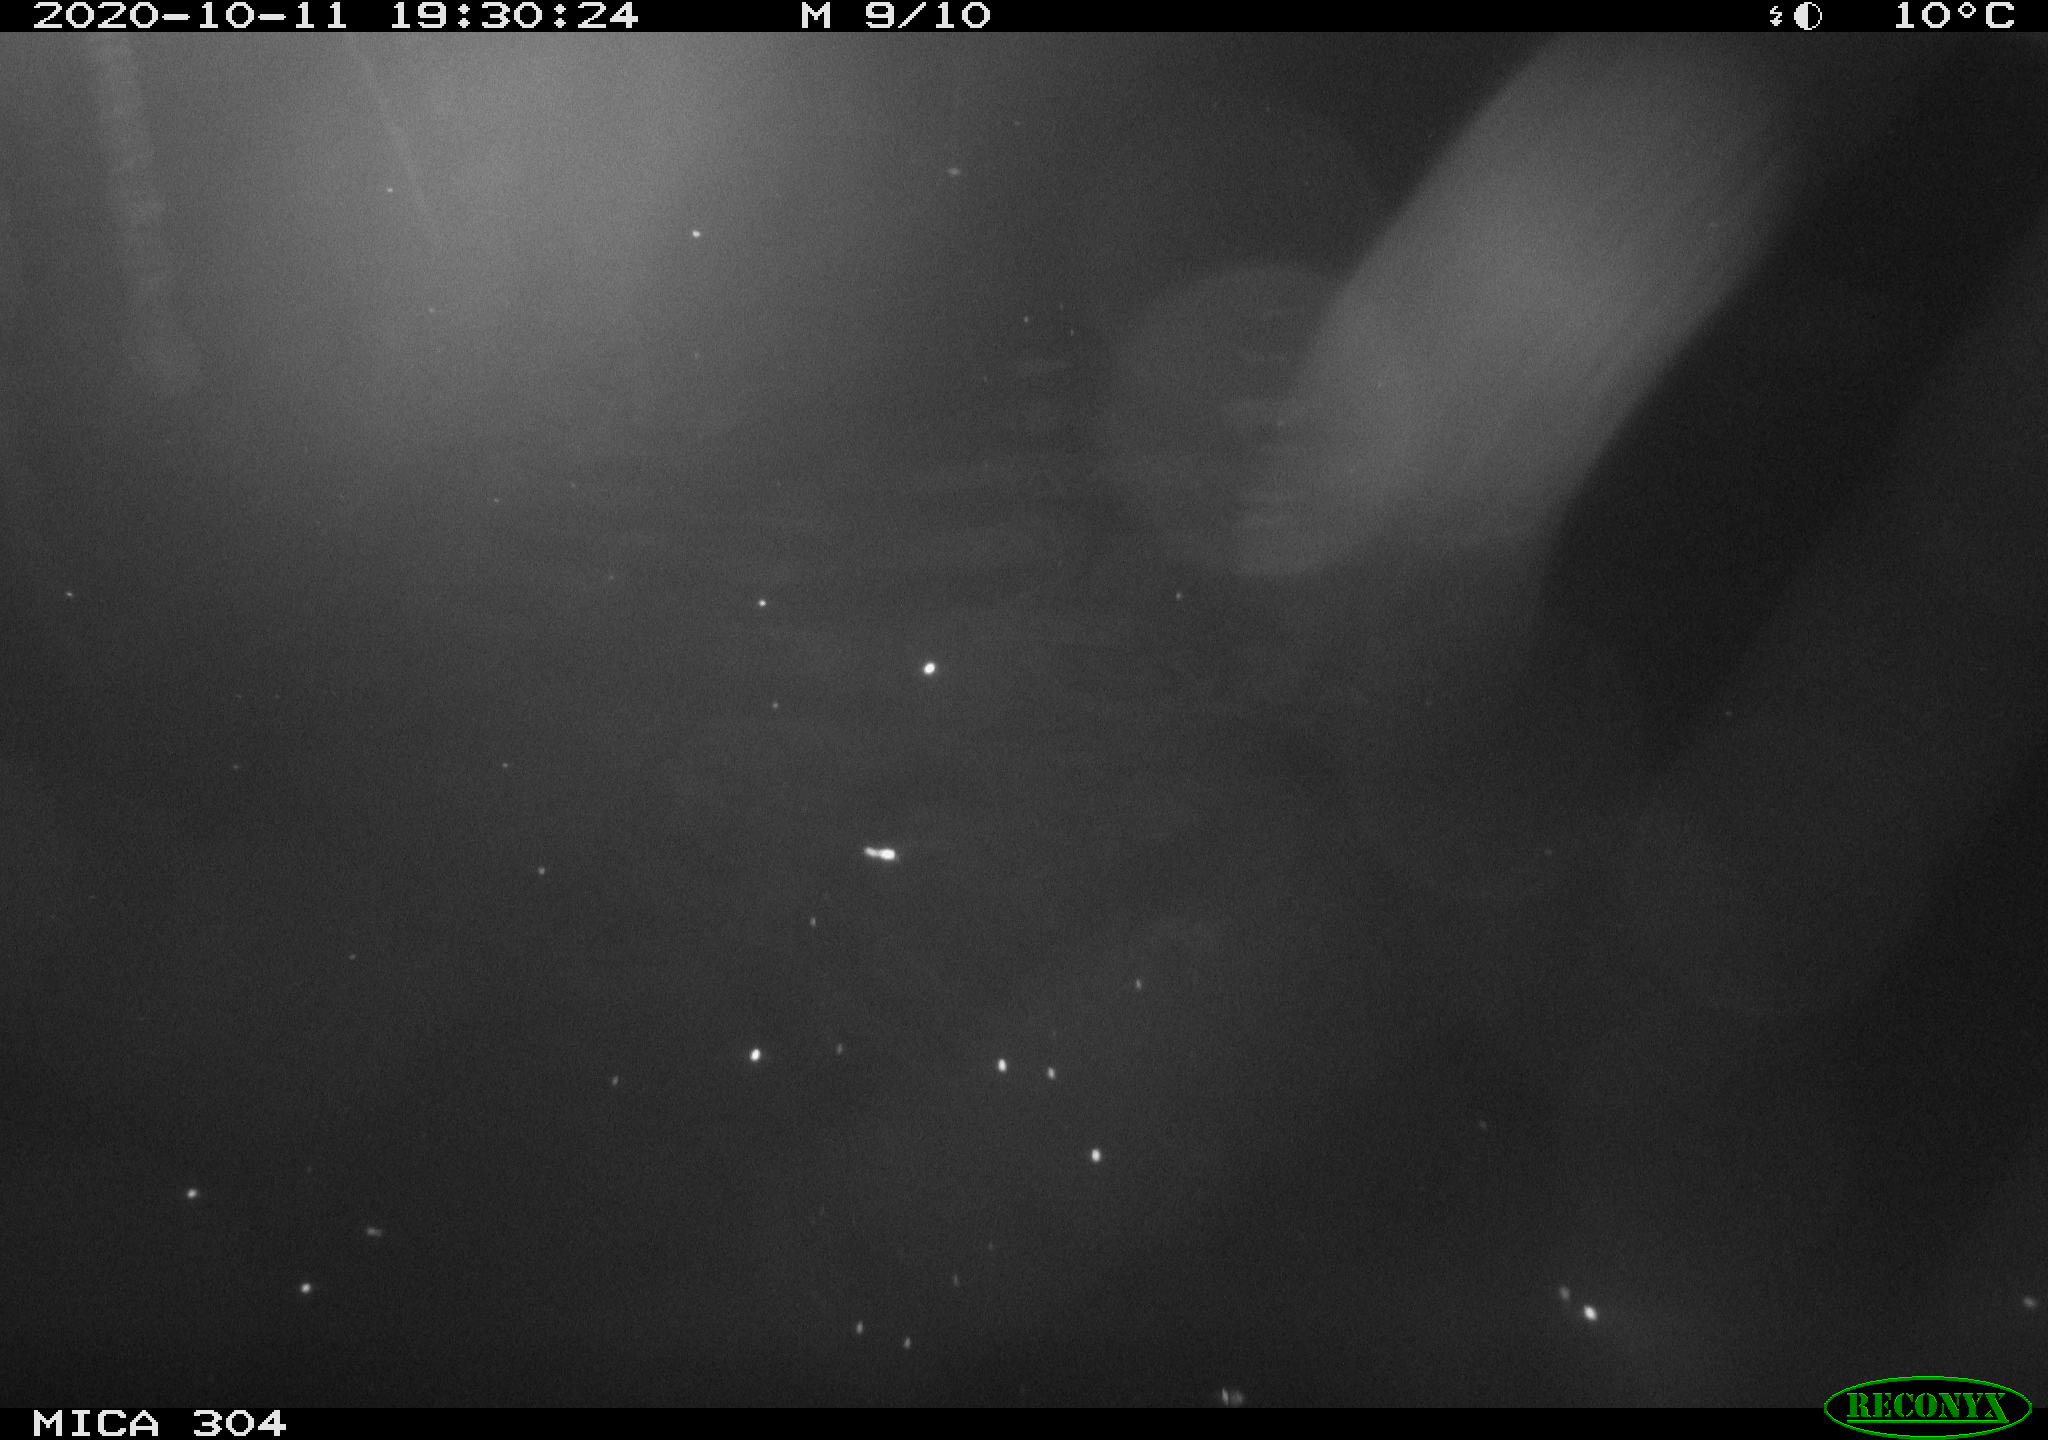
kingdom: Animalia
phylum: Chordata
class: Mammalia
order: Rodentia
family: Cricetidae
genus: Ondatra
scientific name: Ondatra zibethicus
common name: Muskrat
